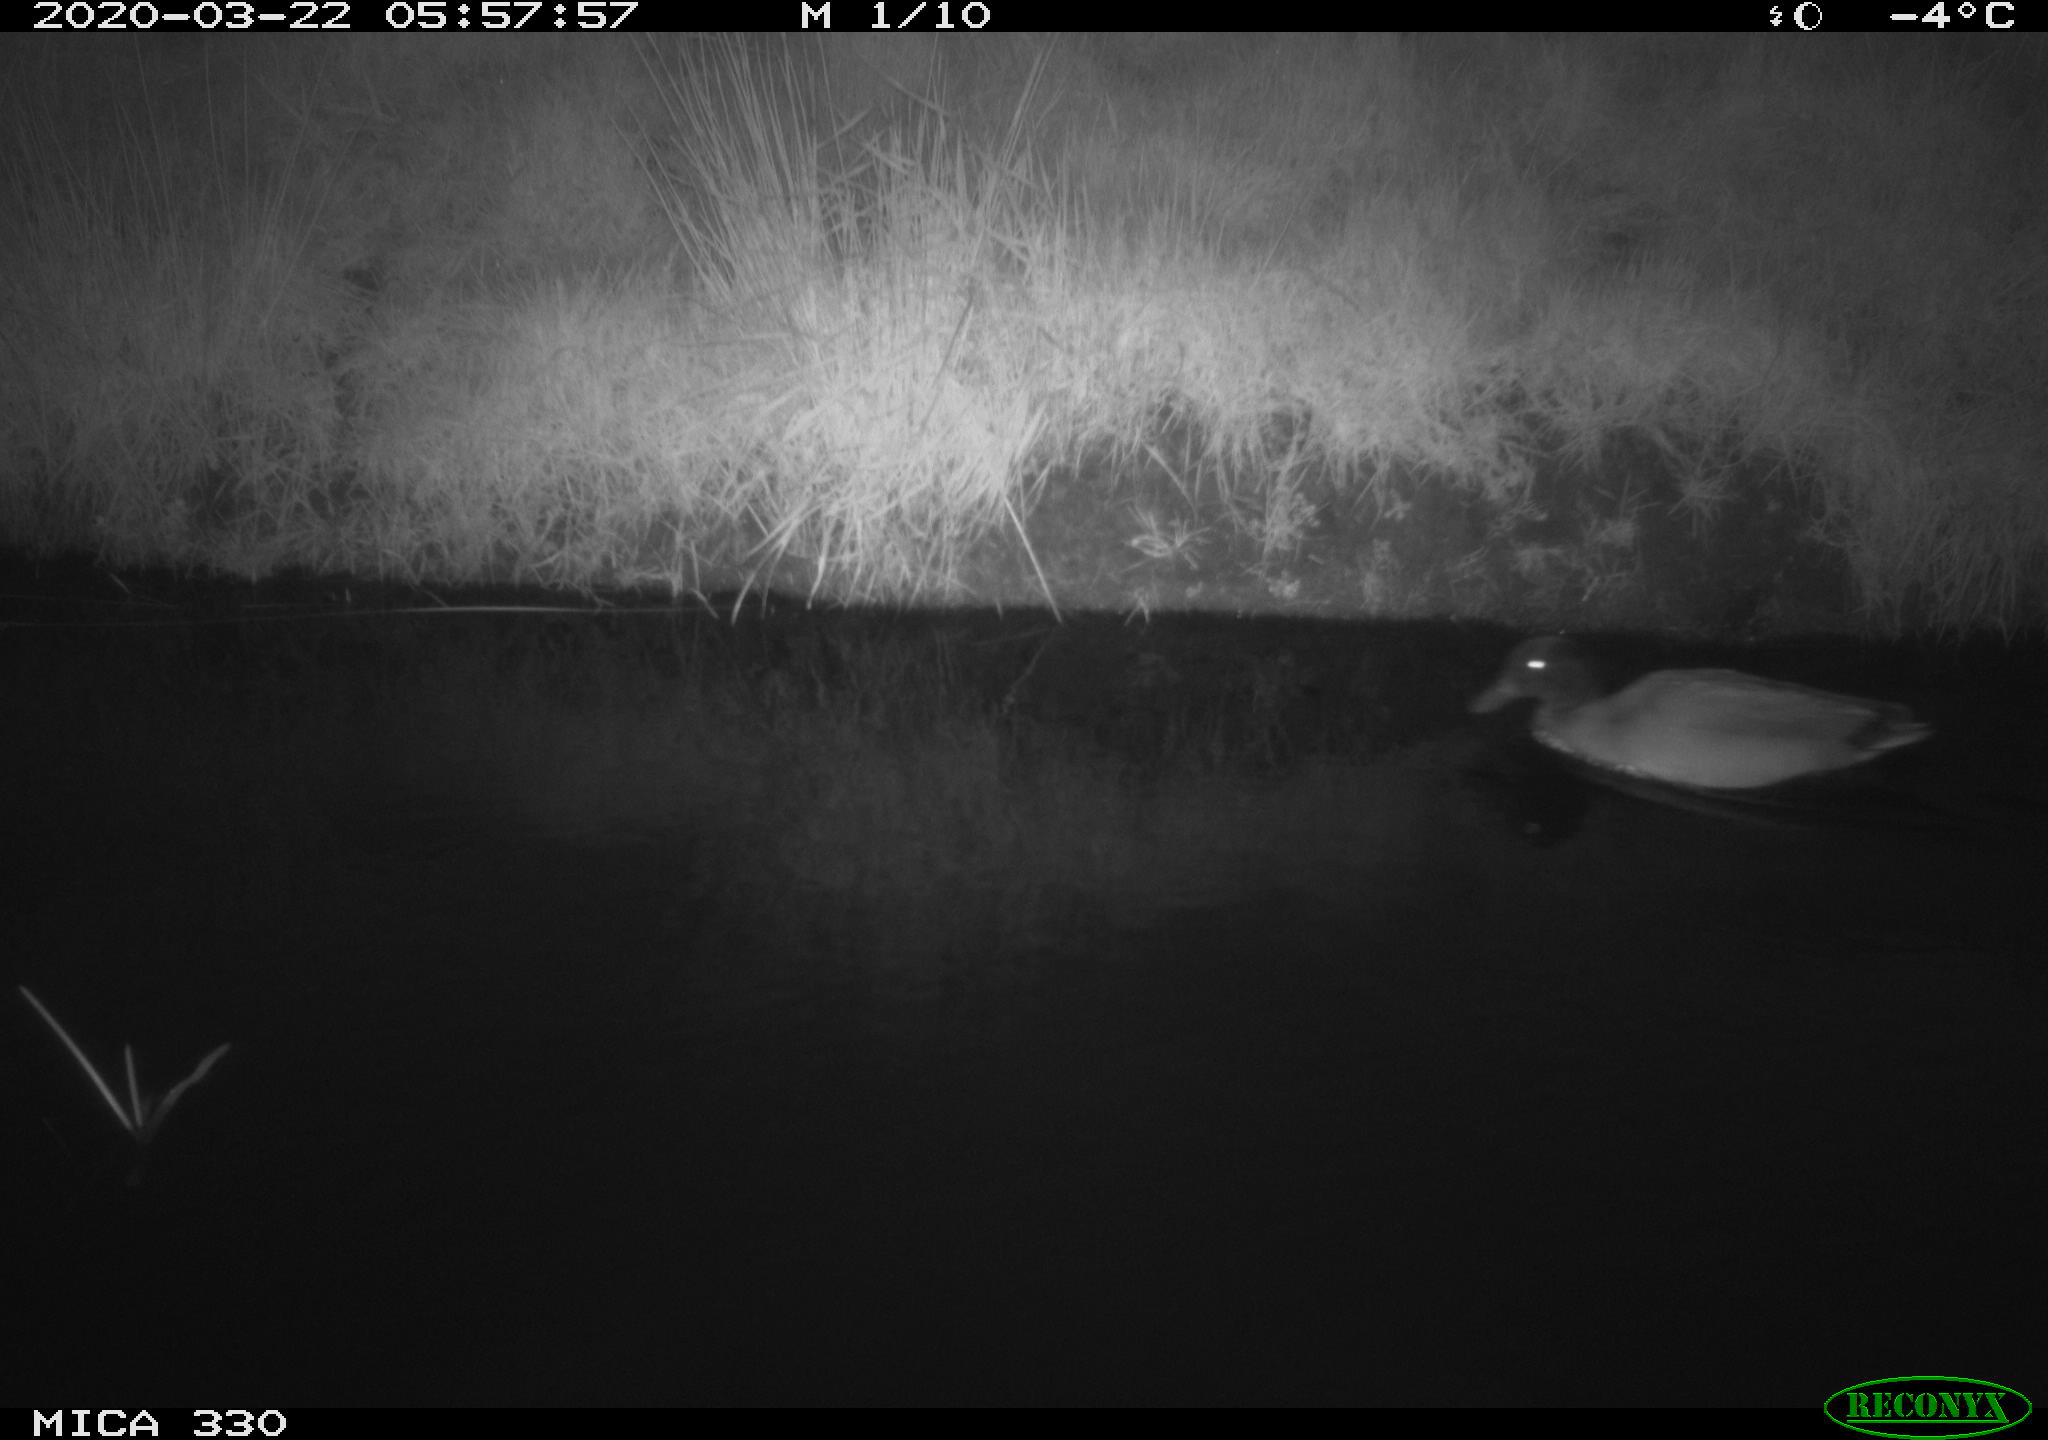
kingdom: Animalia
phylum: Chordata
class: Aves
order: Anseriformes
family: Anatidae
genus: Anas
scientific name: Anas platyrhynchos
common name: Mallard
